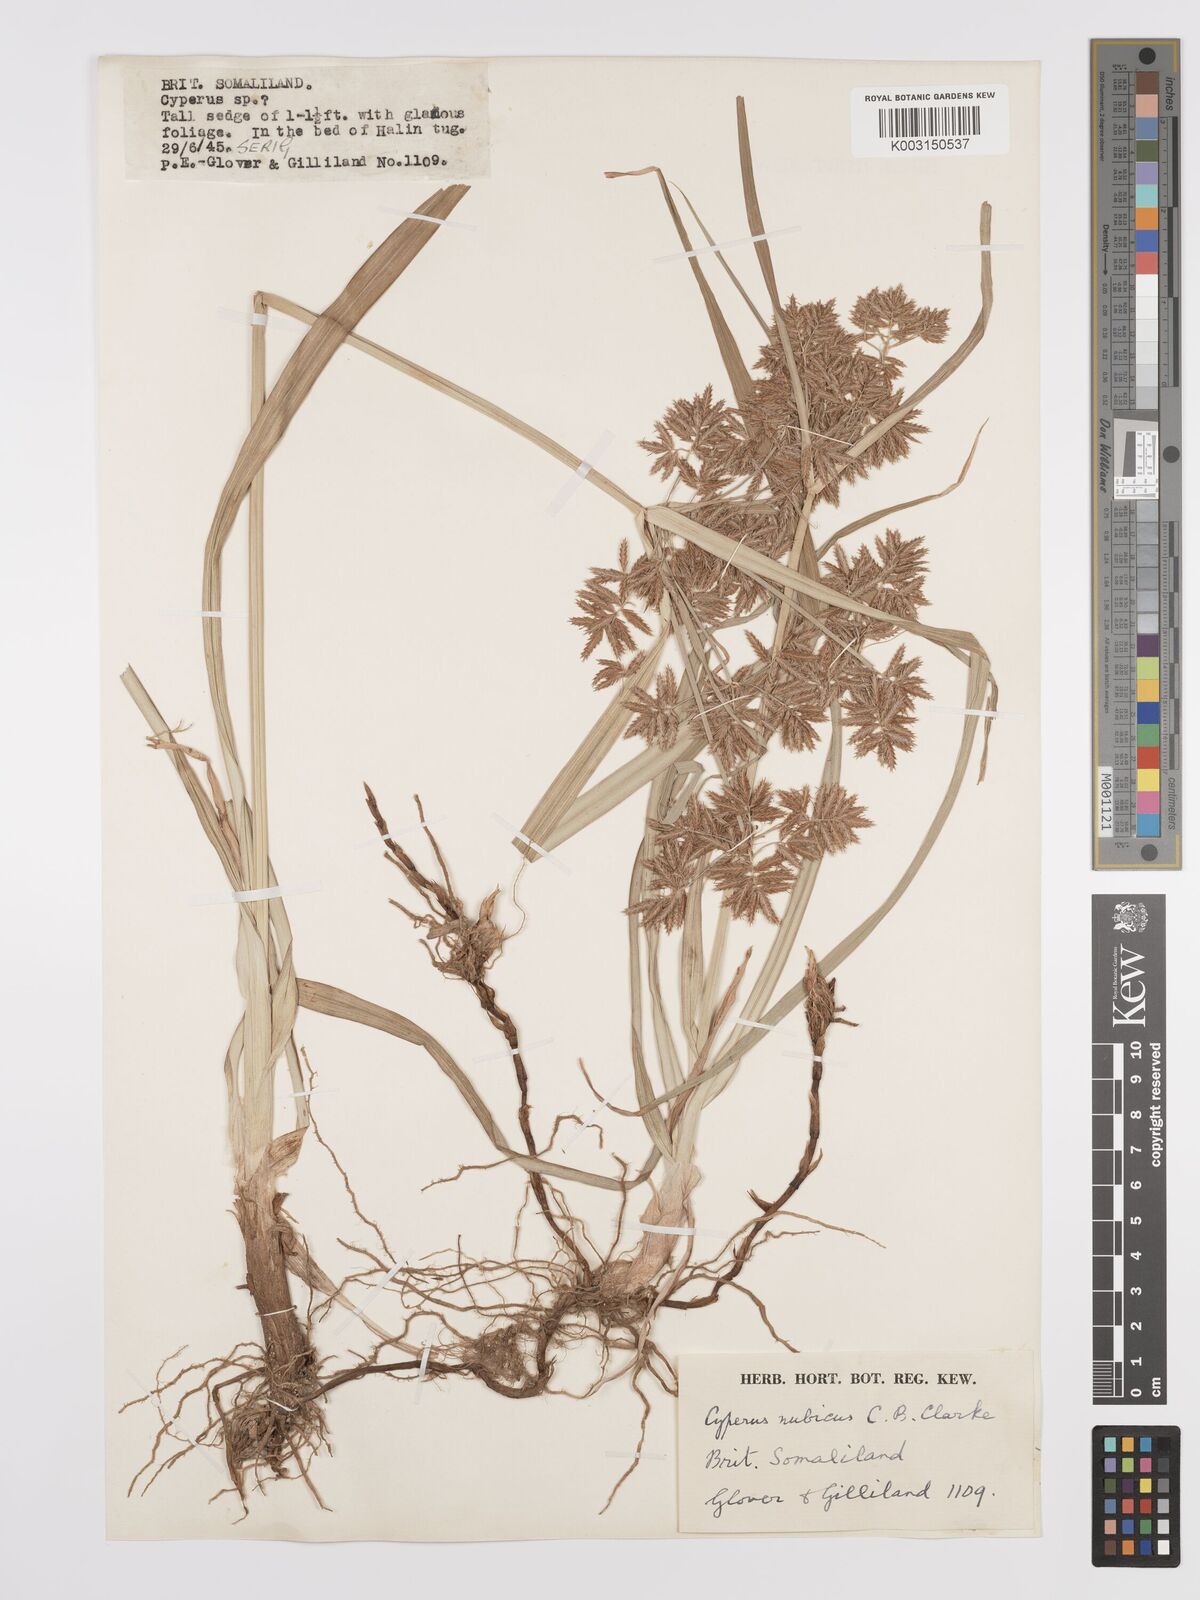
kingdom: Plantae
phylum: Tracheophyta
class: Liliopsida
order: Poales
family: Cyperaceae
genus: Cyperus
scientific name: Cyperus bifax
